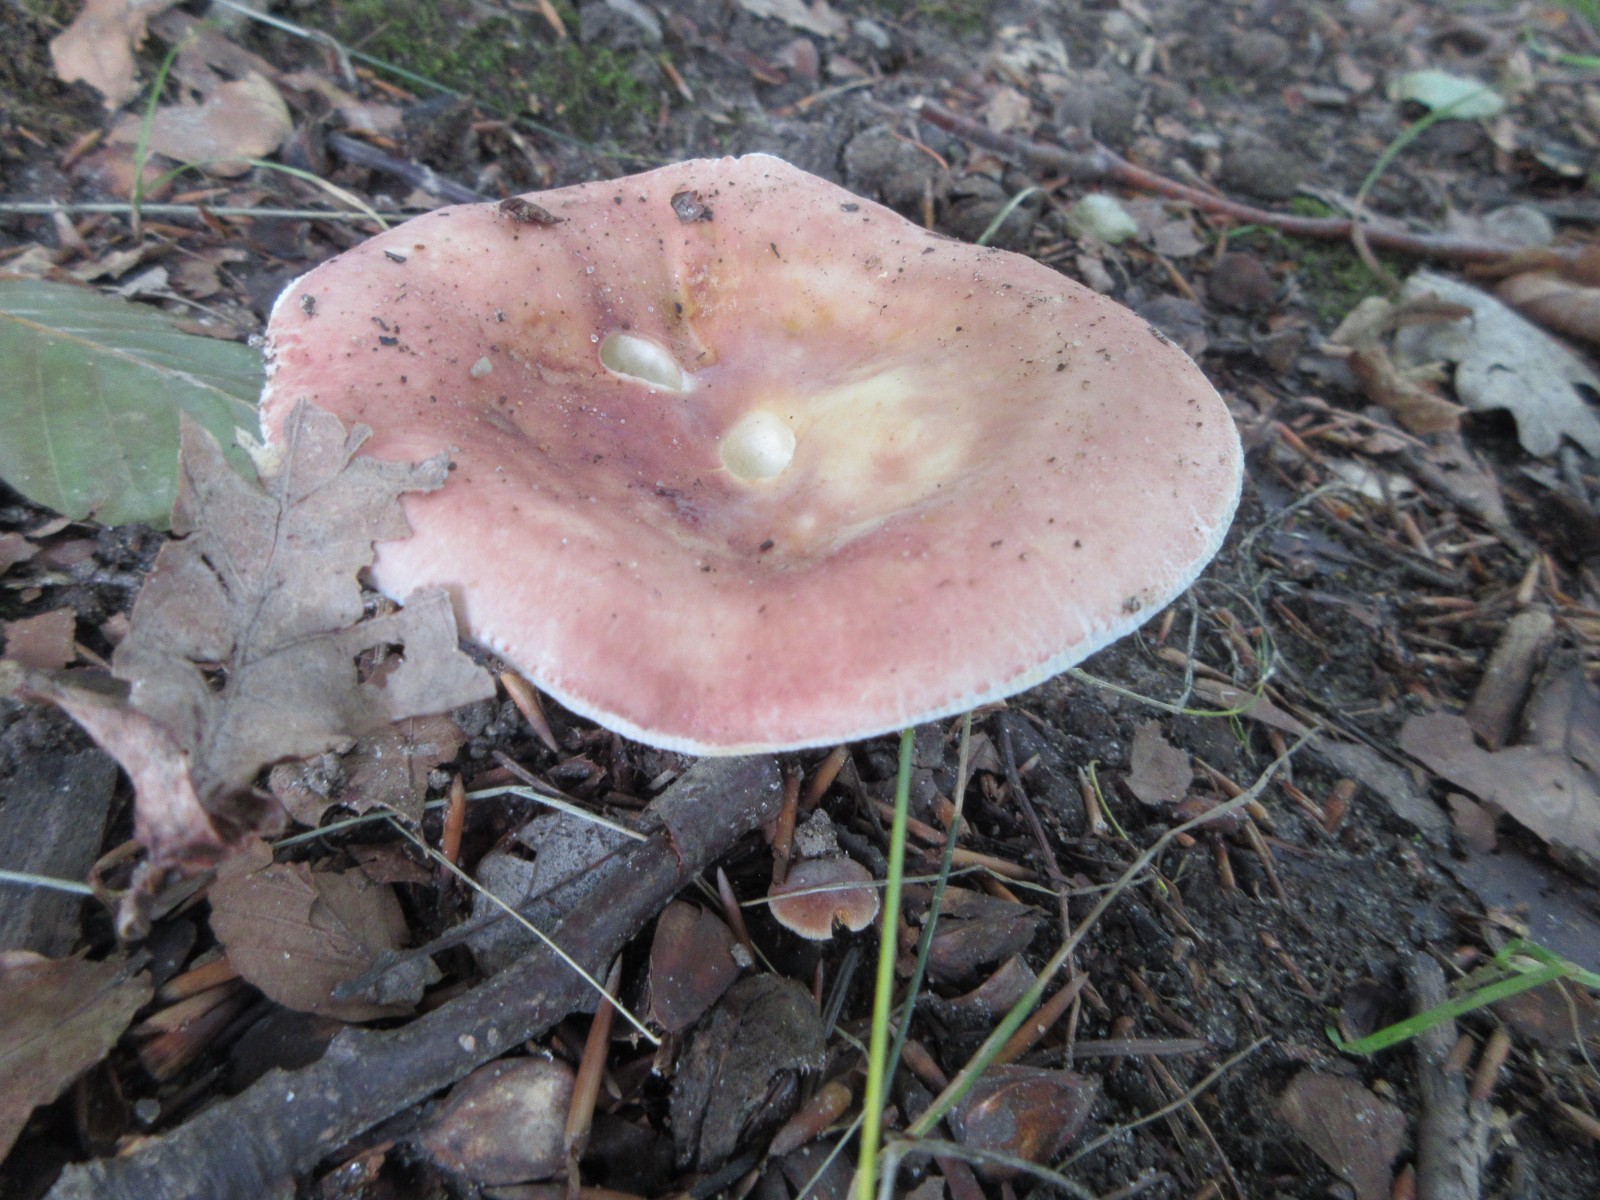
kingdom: Fungi
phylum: Basidiomycota
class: Agaricomycetes
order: Russulales
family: Russulaceae
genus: Russula
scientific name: Russula vesca
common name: spiselig skørhat
